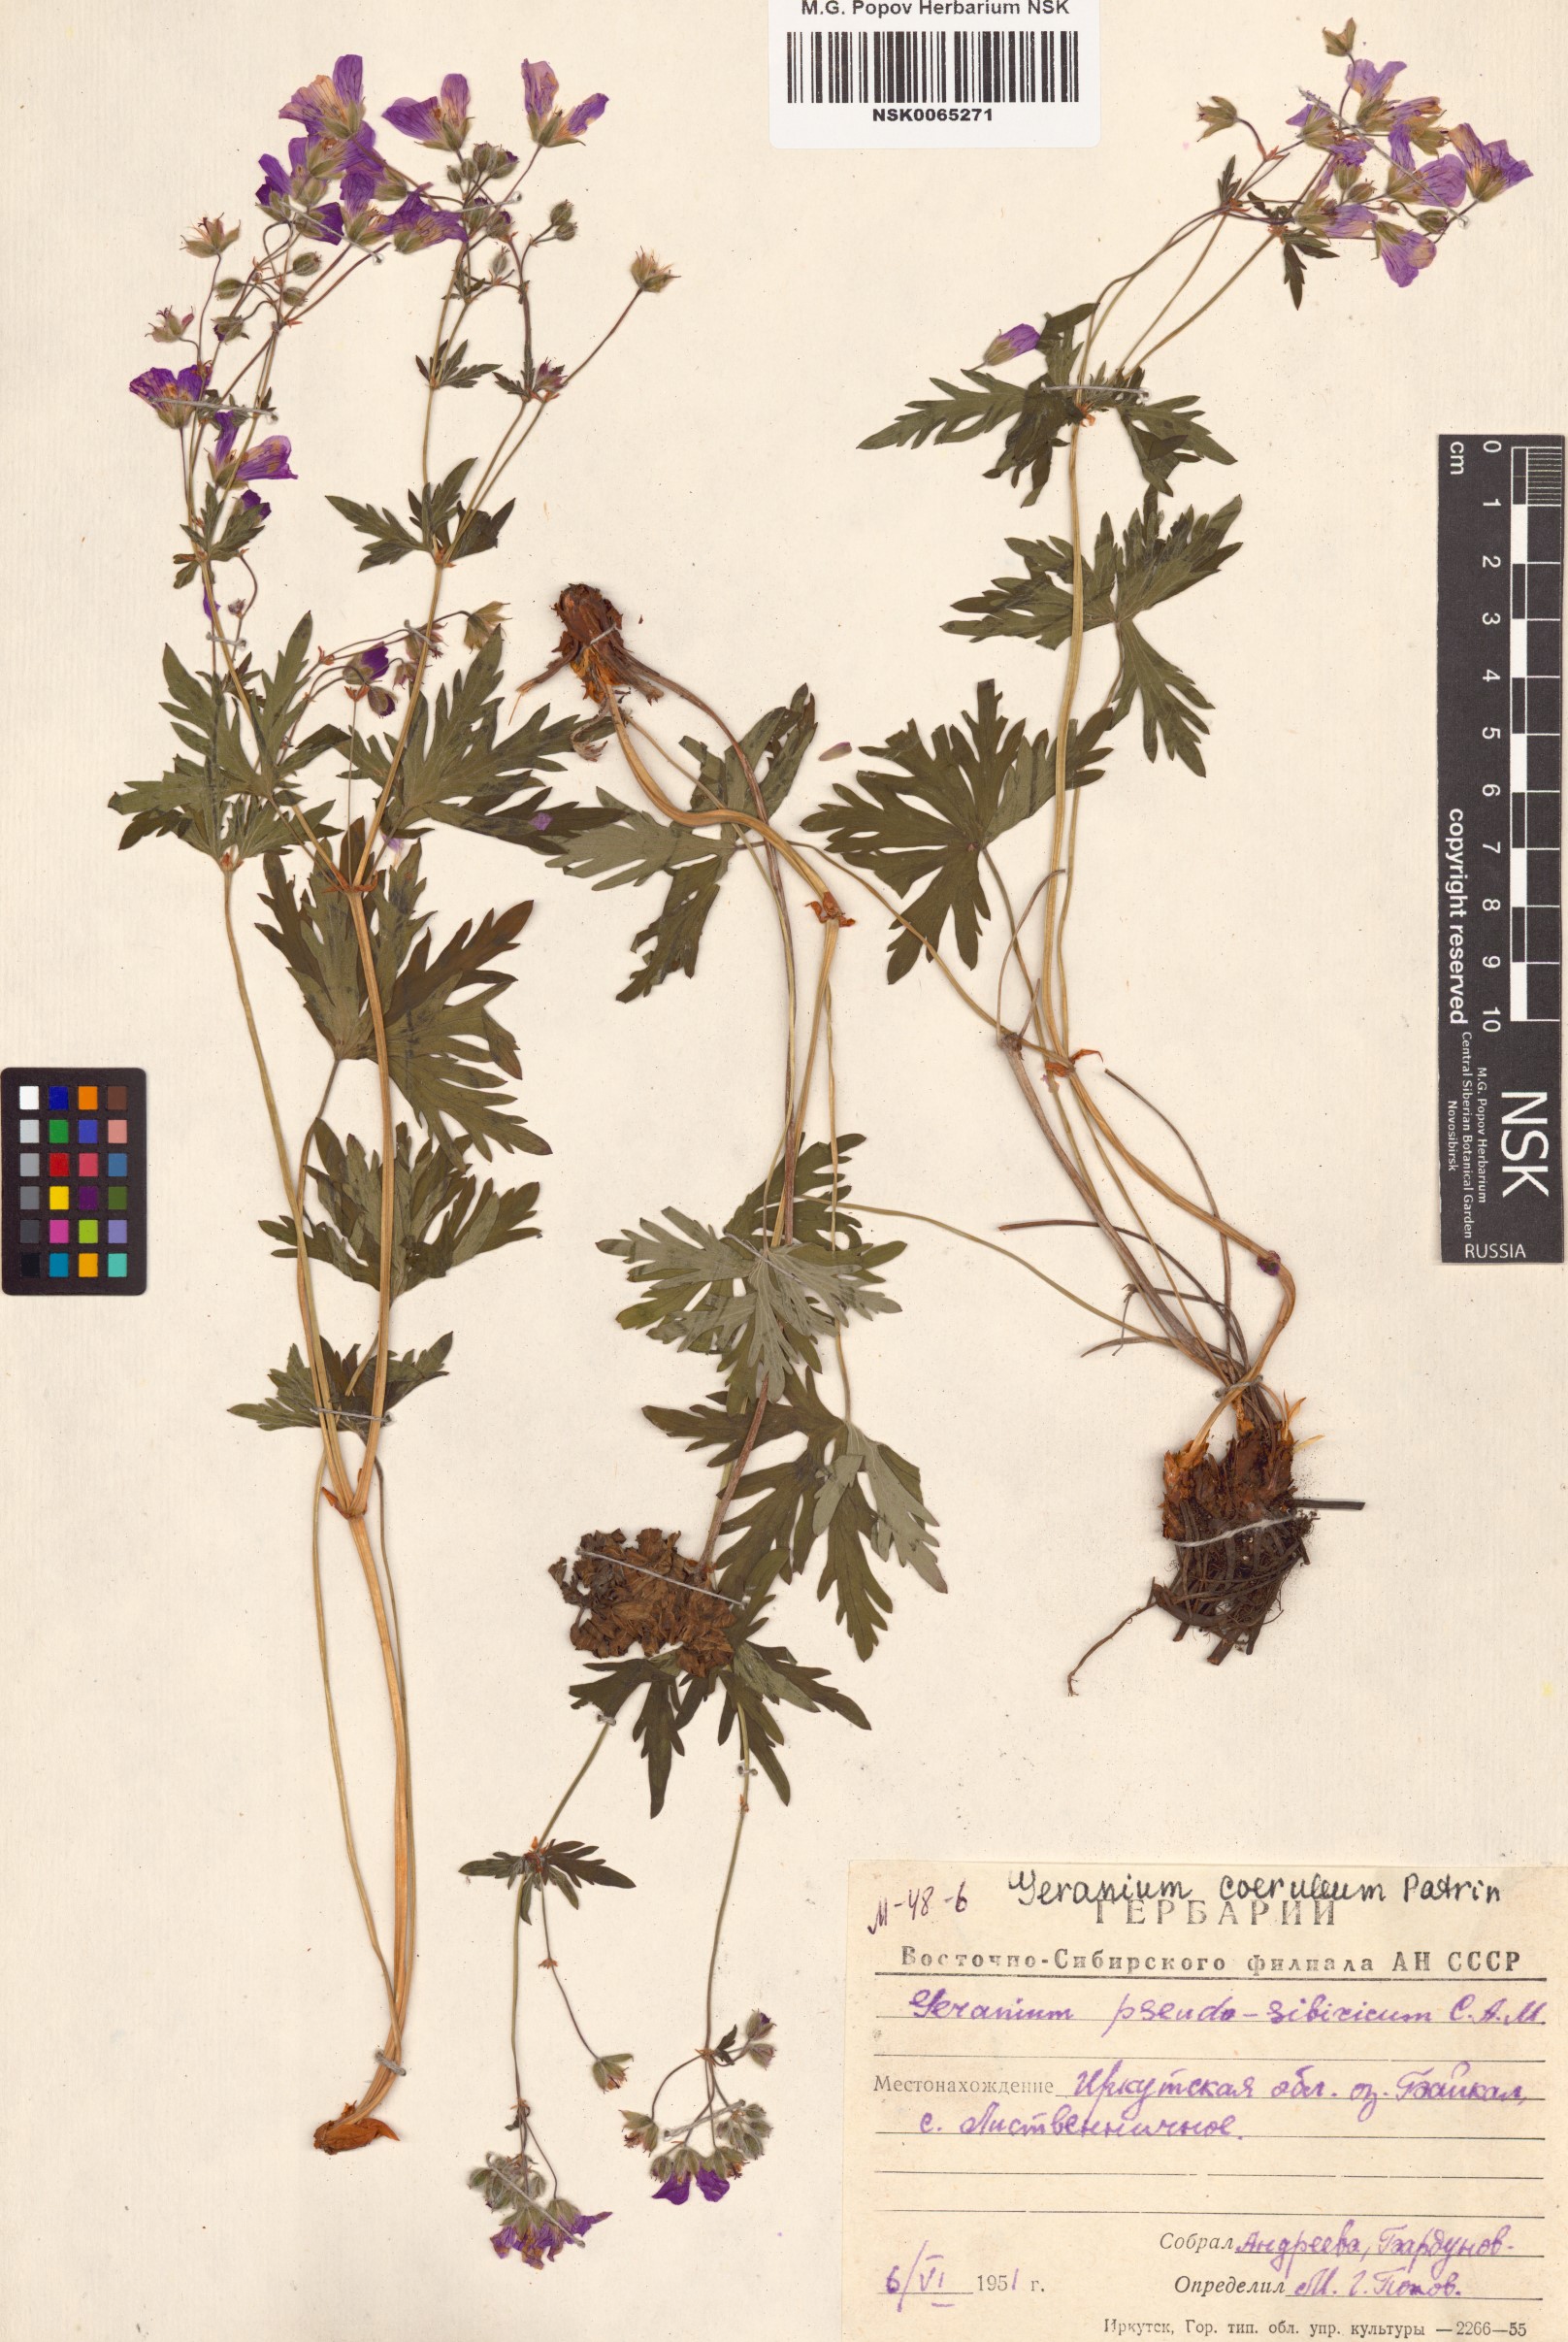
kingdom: Plantae
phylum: Tracheophyta
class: Magnoliopsida
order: Geraniales
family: Geraniaceae
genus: Geranium
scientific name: Geranium pseudosibiricum
